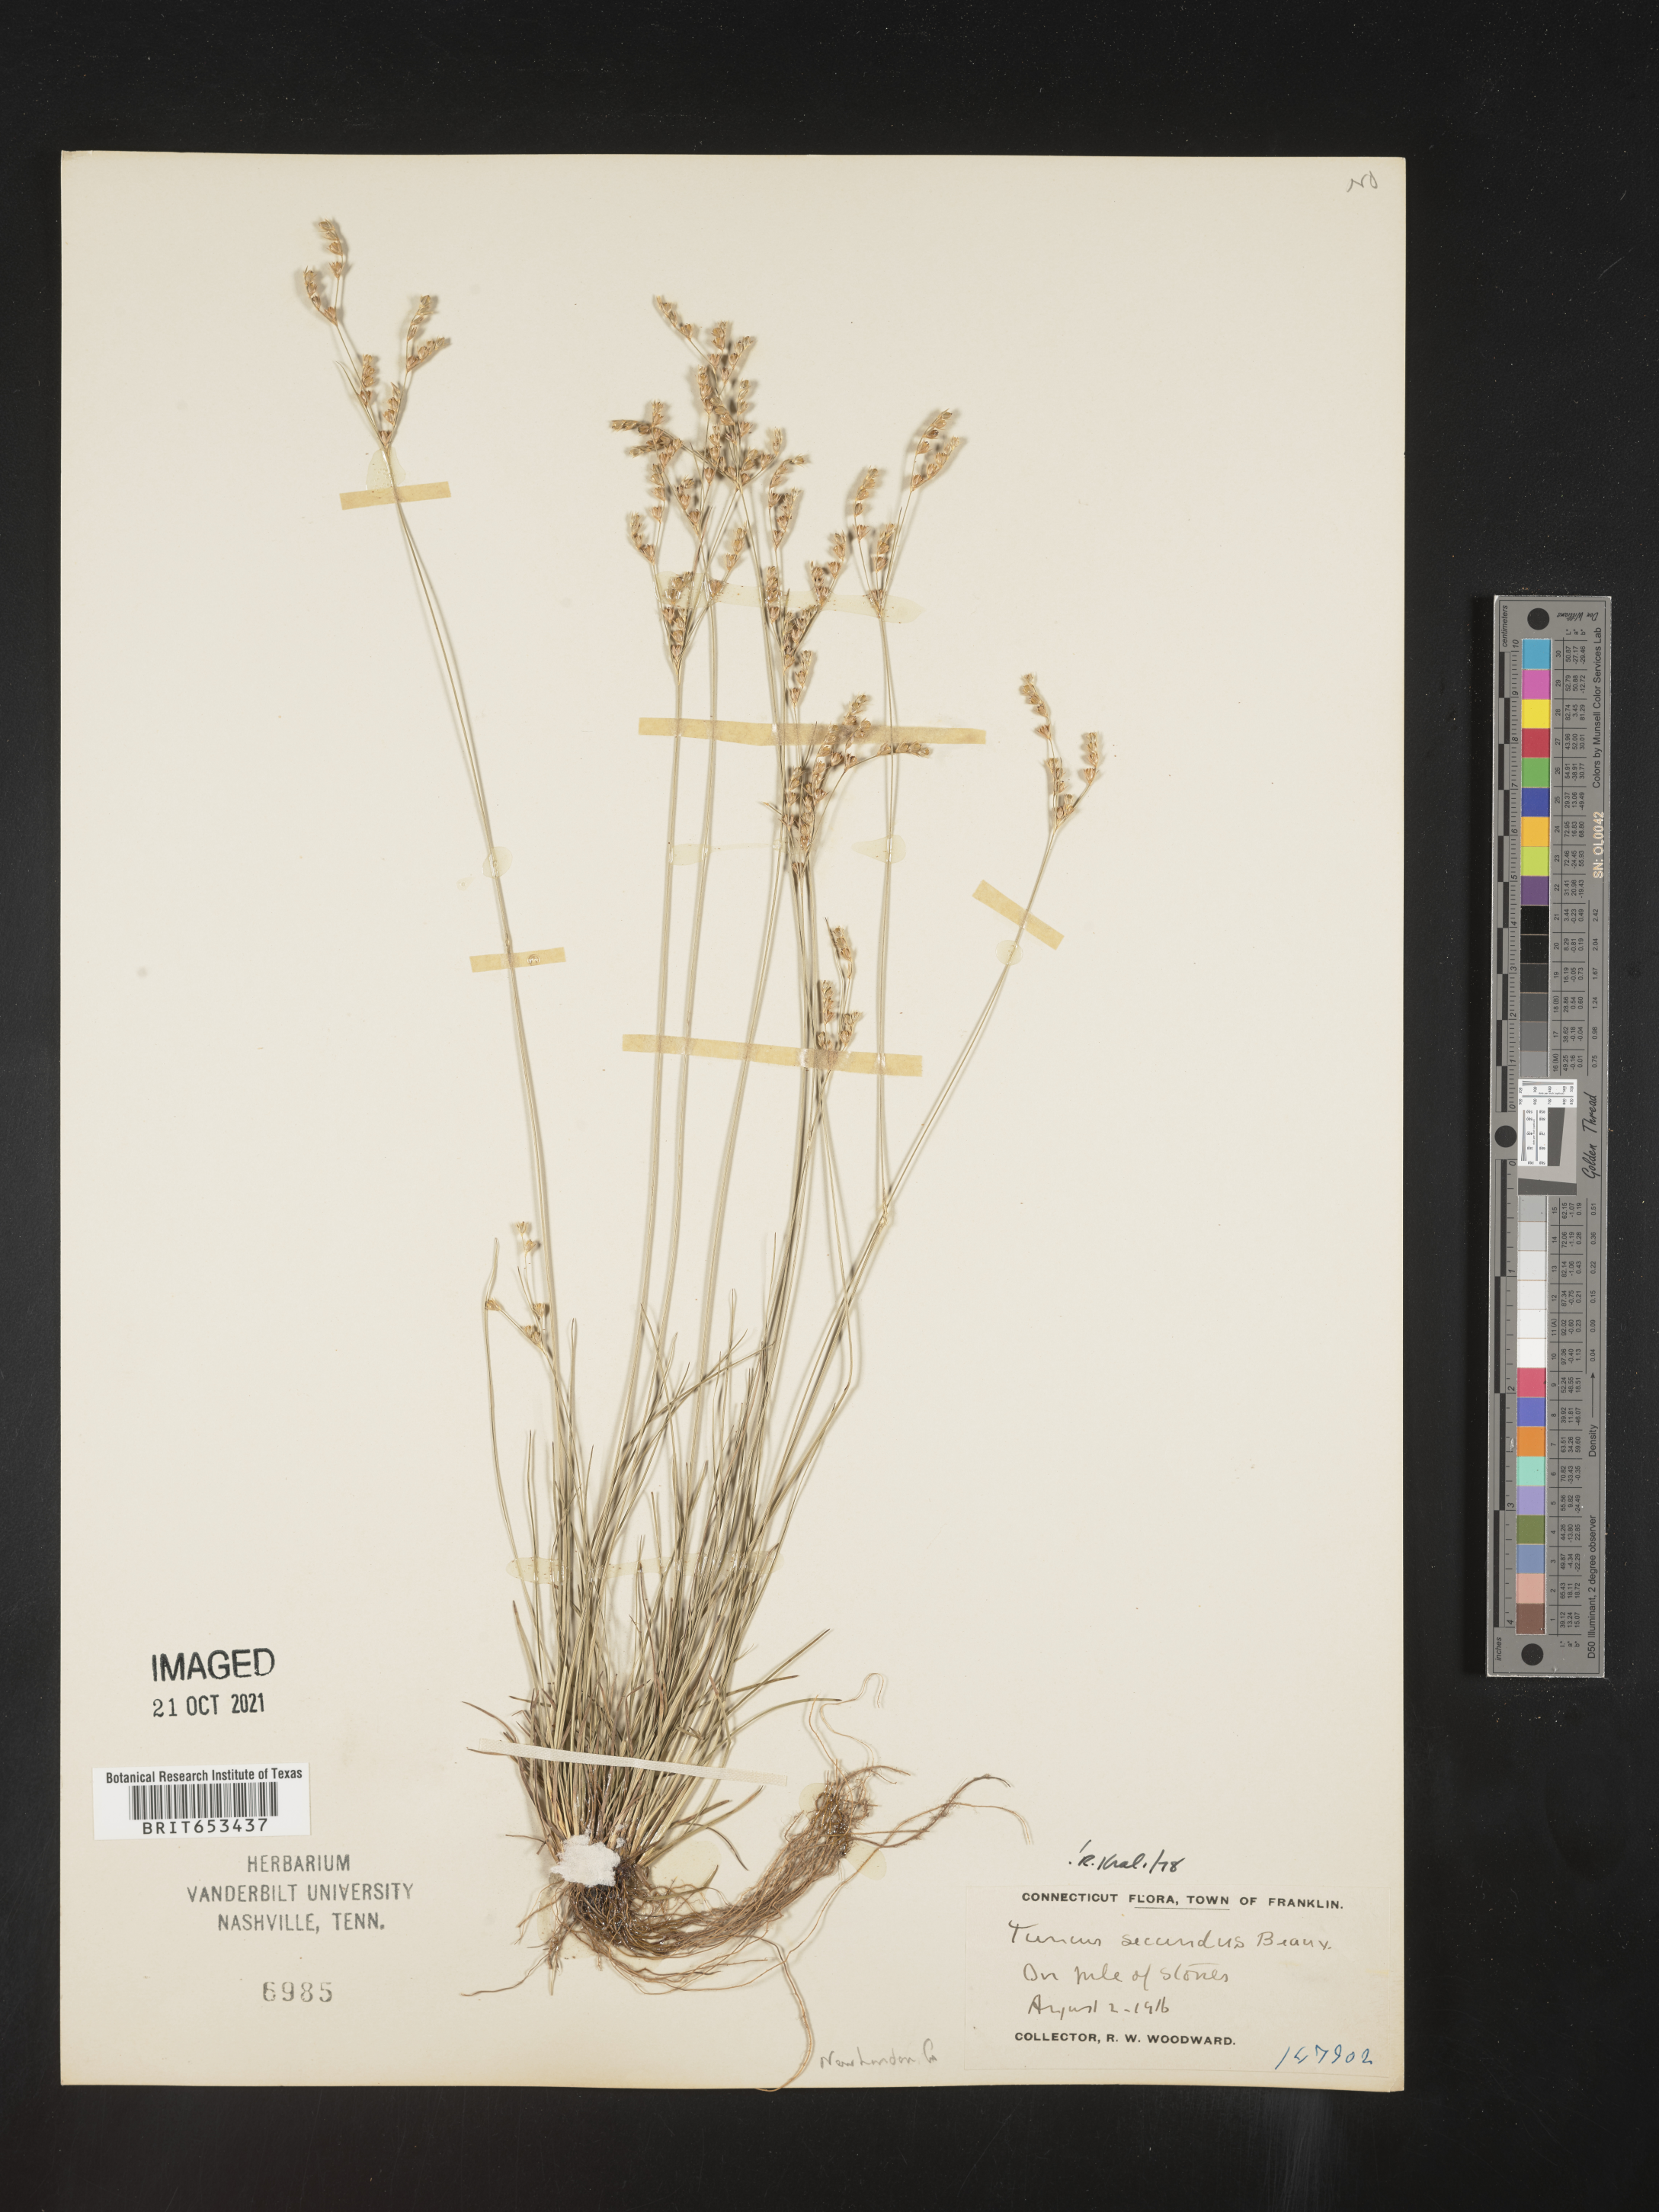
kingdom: Plantae
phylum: Tracheophyta
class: Liliopsida
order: Poales
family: Juncaceae
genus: Juncus
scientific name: Juncus secundus
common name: Lopsided rush
